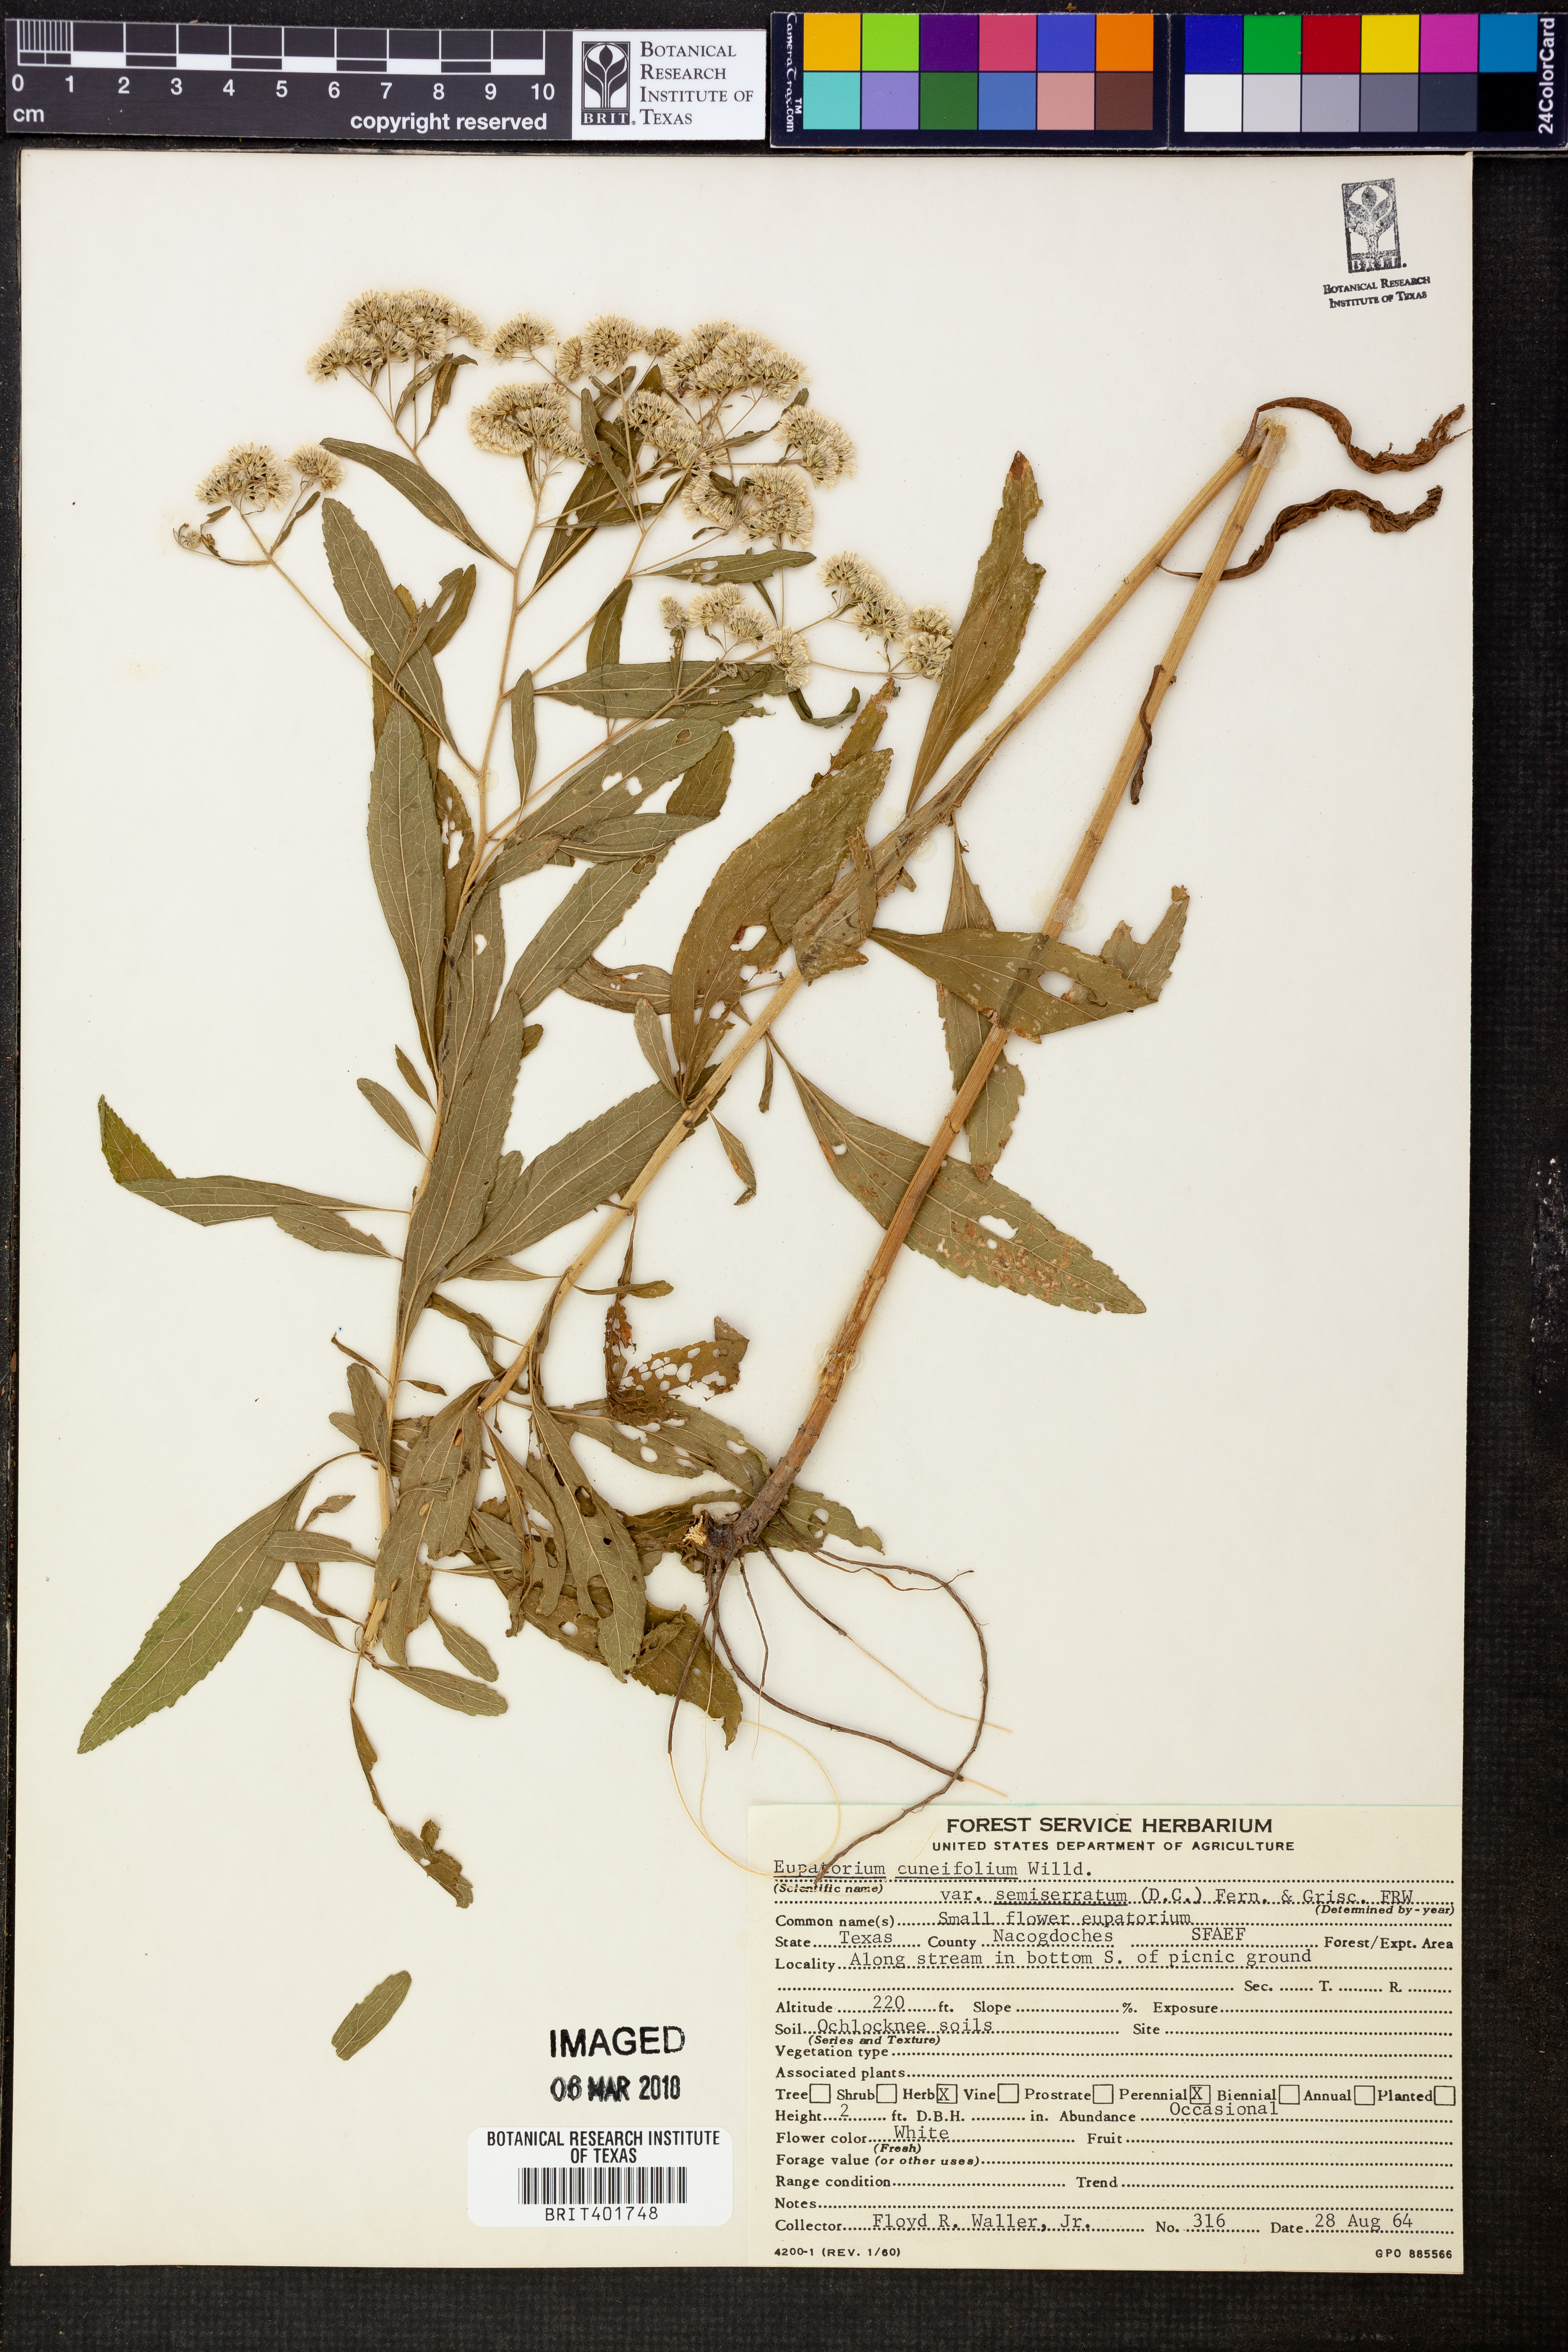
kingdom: Plantae
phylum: Tracheophyta
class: Magnoliopsida
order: Asterales
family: Asteraceae
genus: Eupatorium
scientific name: Eupatorium semiserratum
